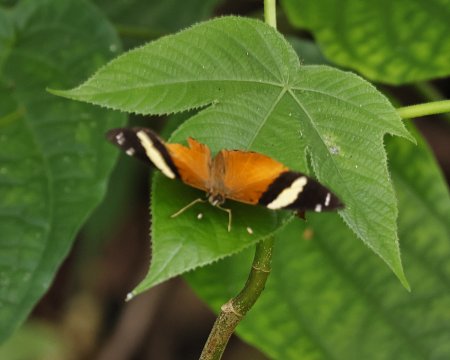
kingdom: Animalia
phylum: Arthropoda
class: Insecta
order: Lepidoptera
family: Nymphalidae
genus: Callizona
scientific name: Callizona acesta
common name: Tiger Beauty
